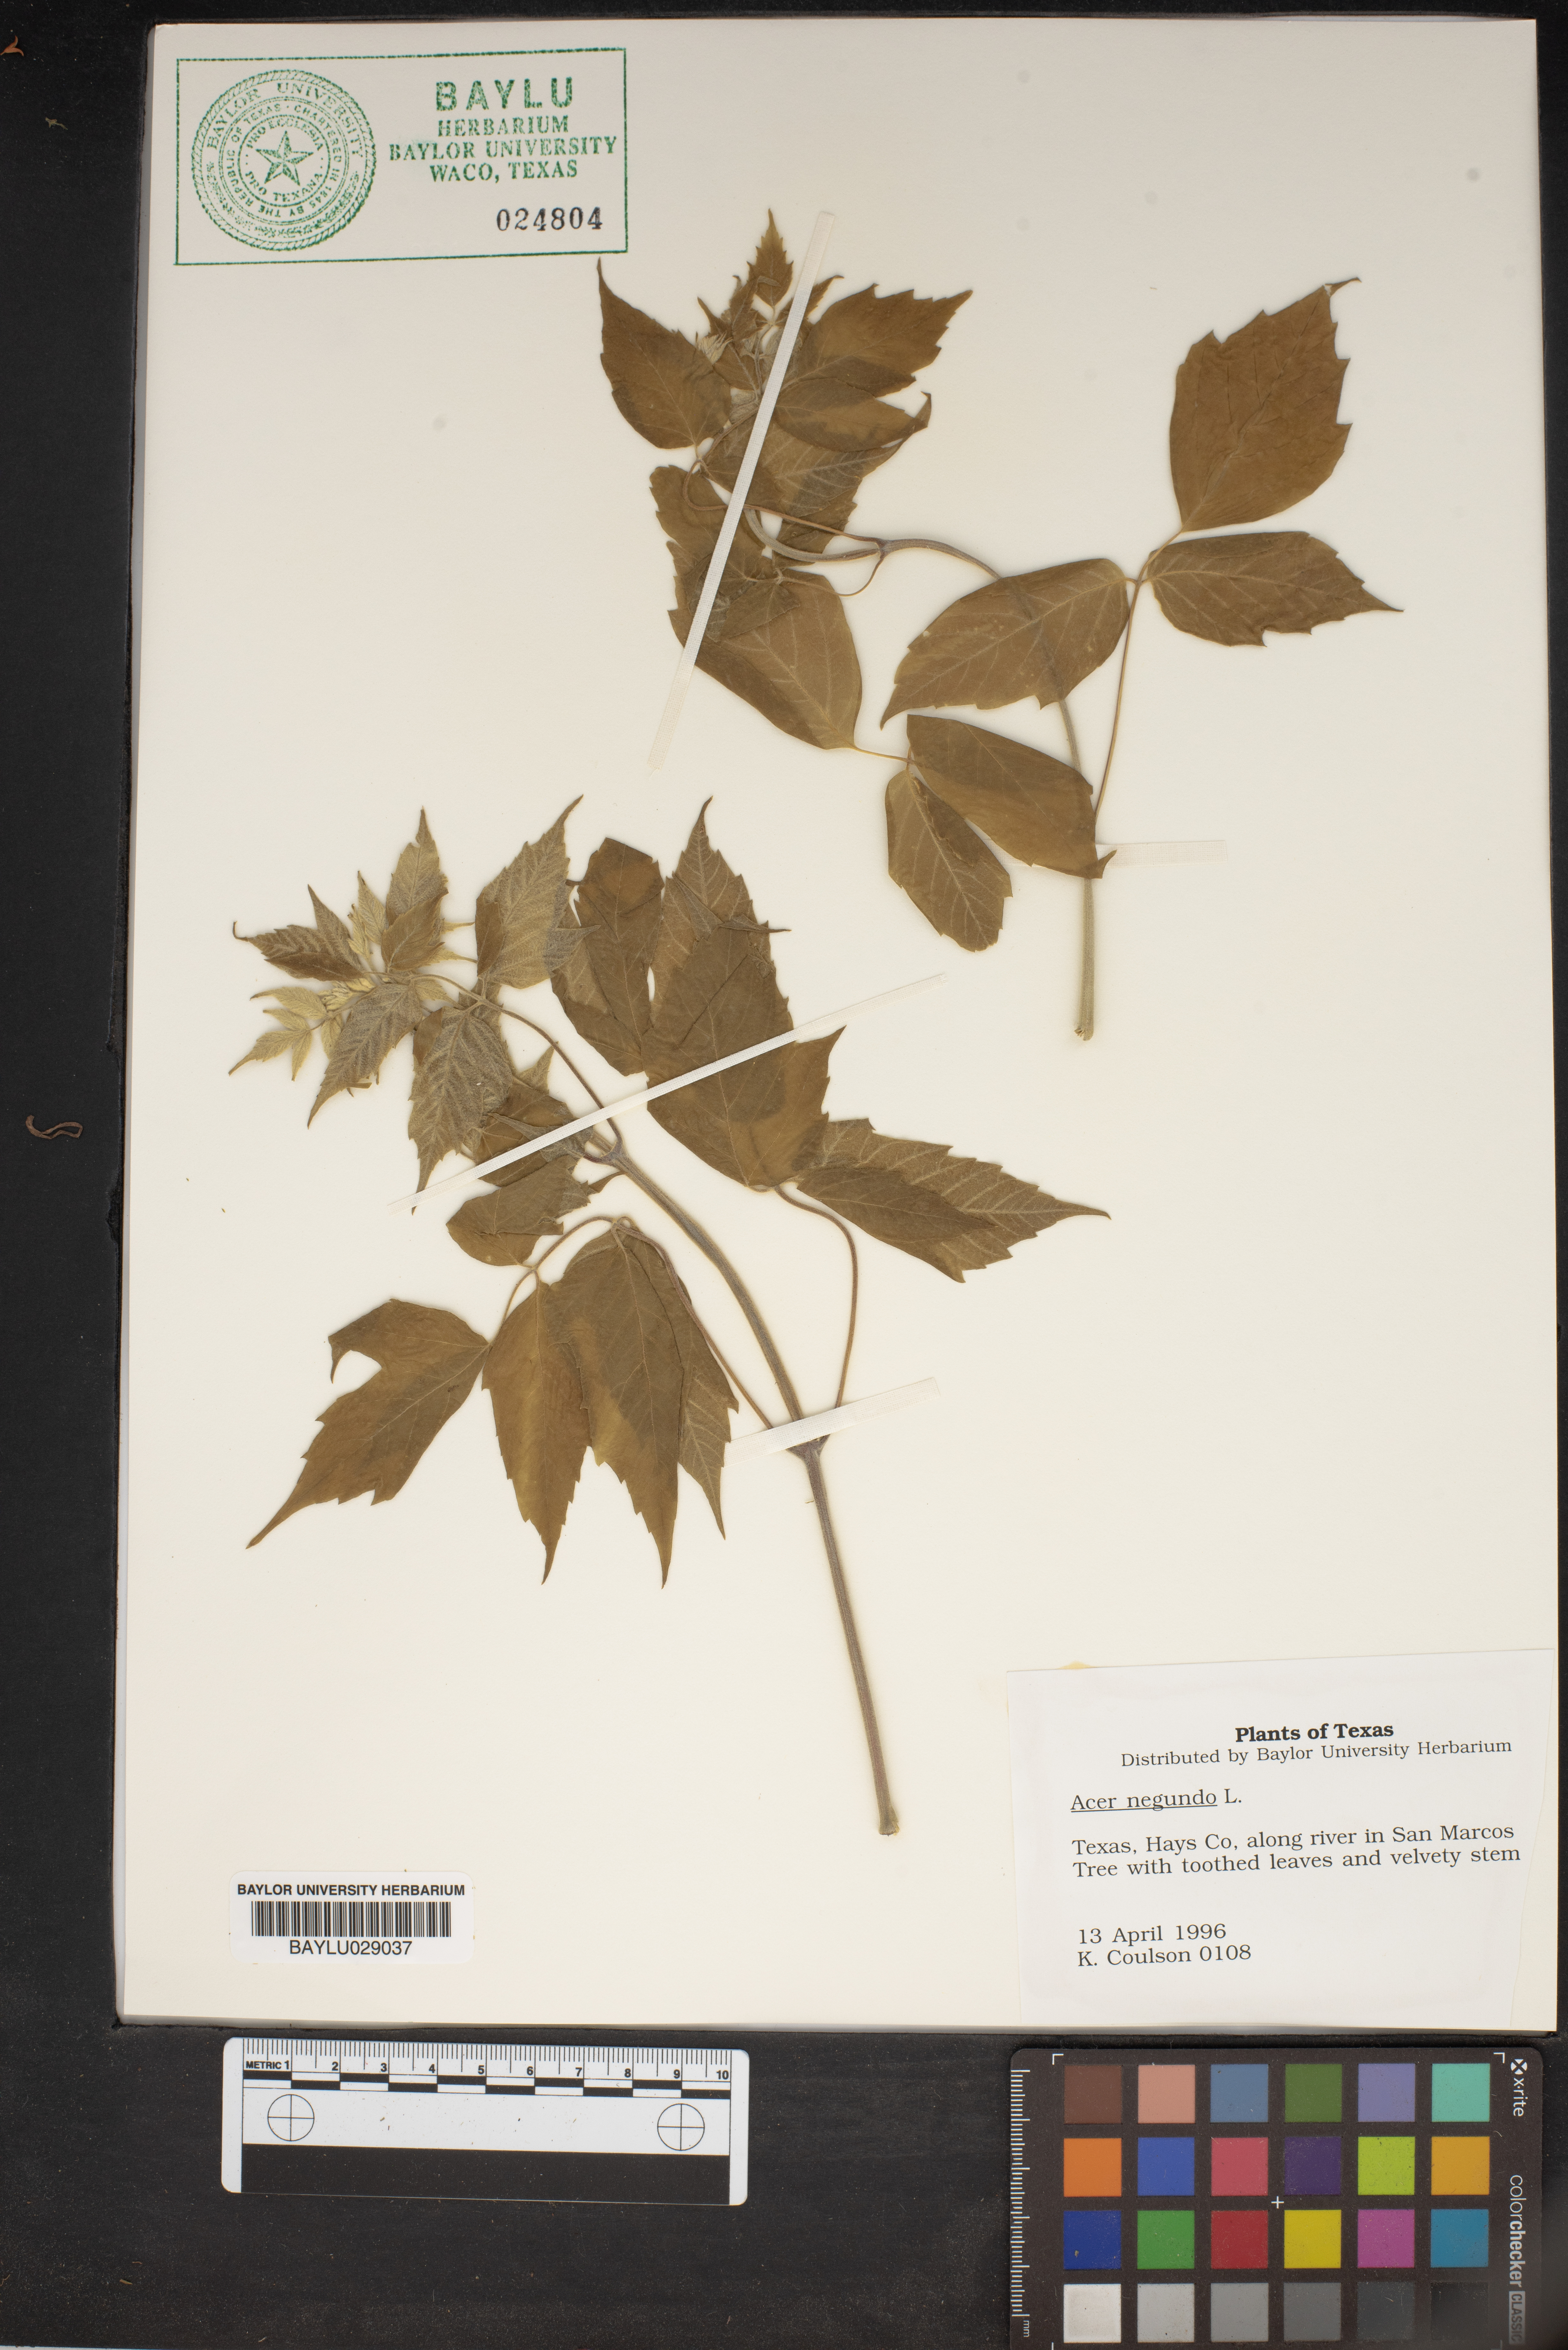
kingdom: Plantae
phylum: Tracheophyta
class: Magnoliopsida
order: Sapindales
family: Sapindaceae
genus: Acer
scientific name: Acer negundo
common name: Ashleaf maple
